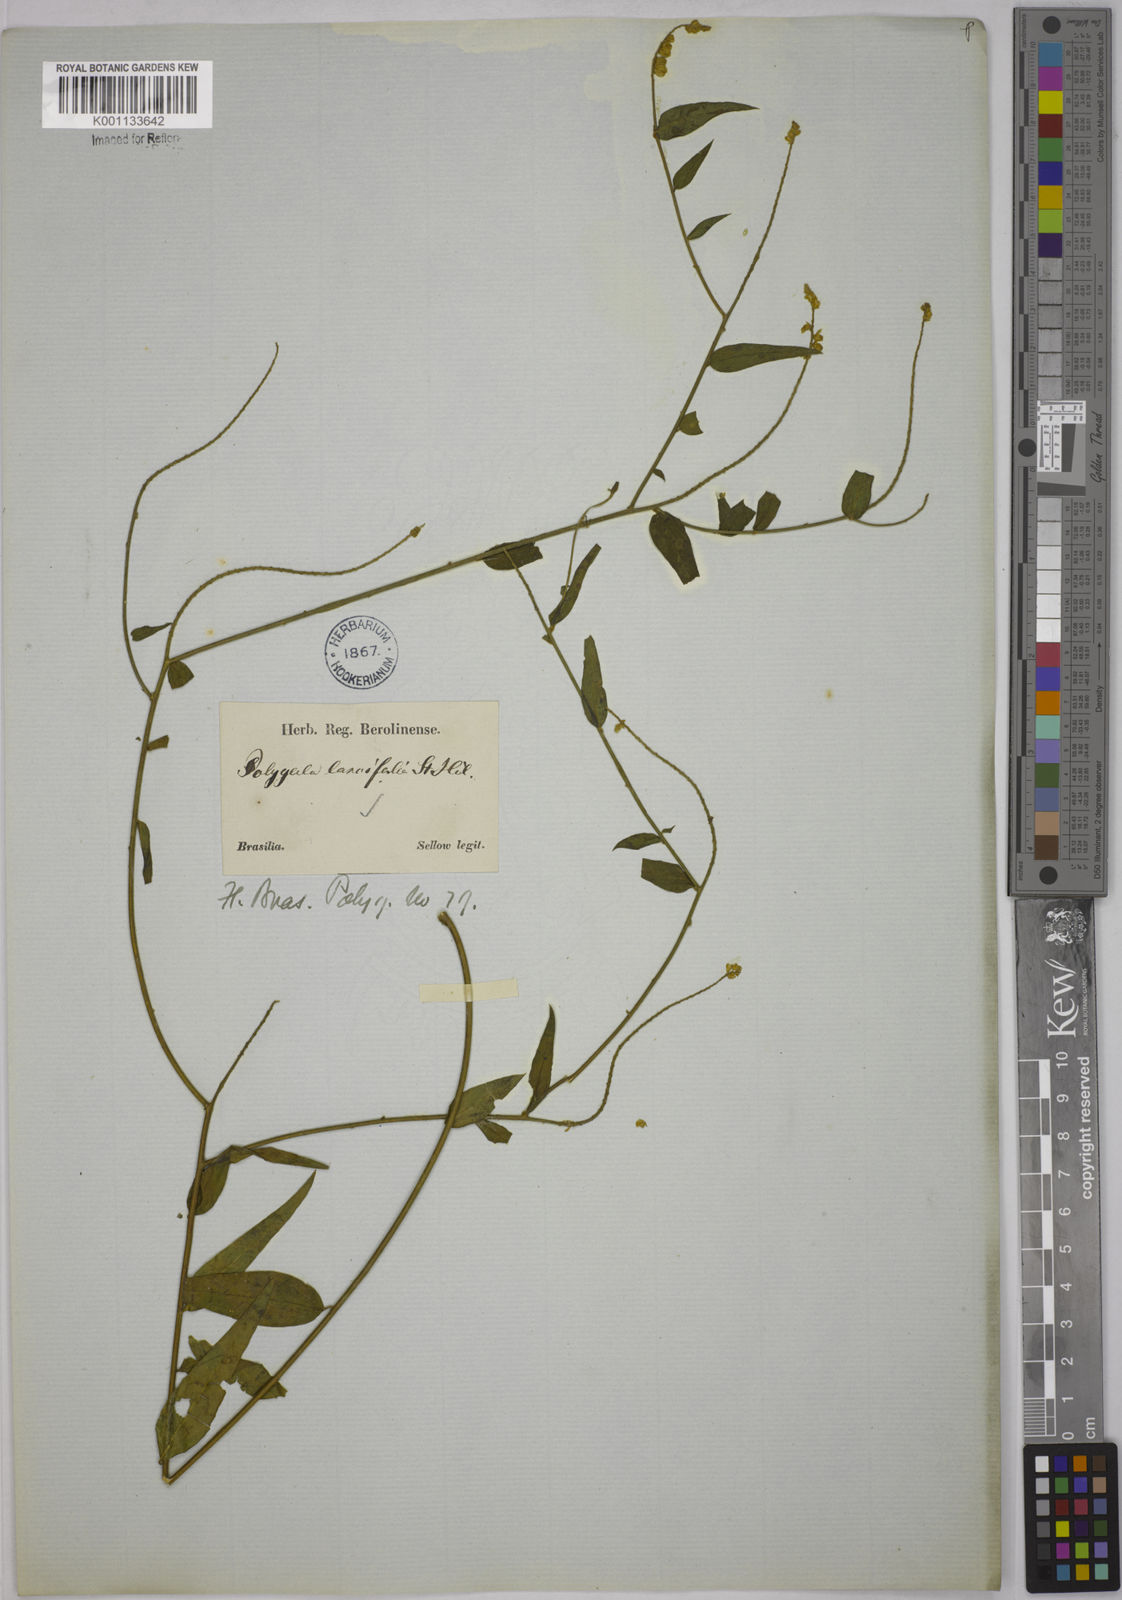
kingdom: Plantae
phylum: Tracheophyta
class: Magnoliopsida
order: Fabales
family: Polygalaceae
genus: Polygala
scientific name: Polygala lancifolia
